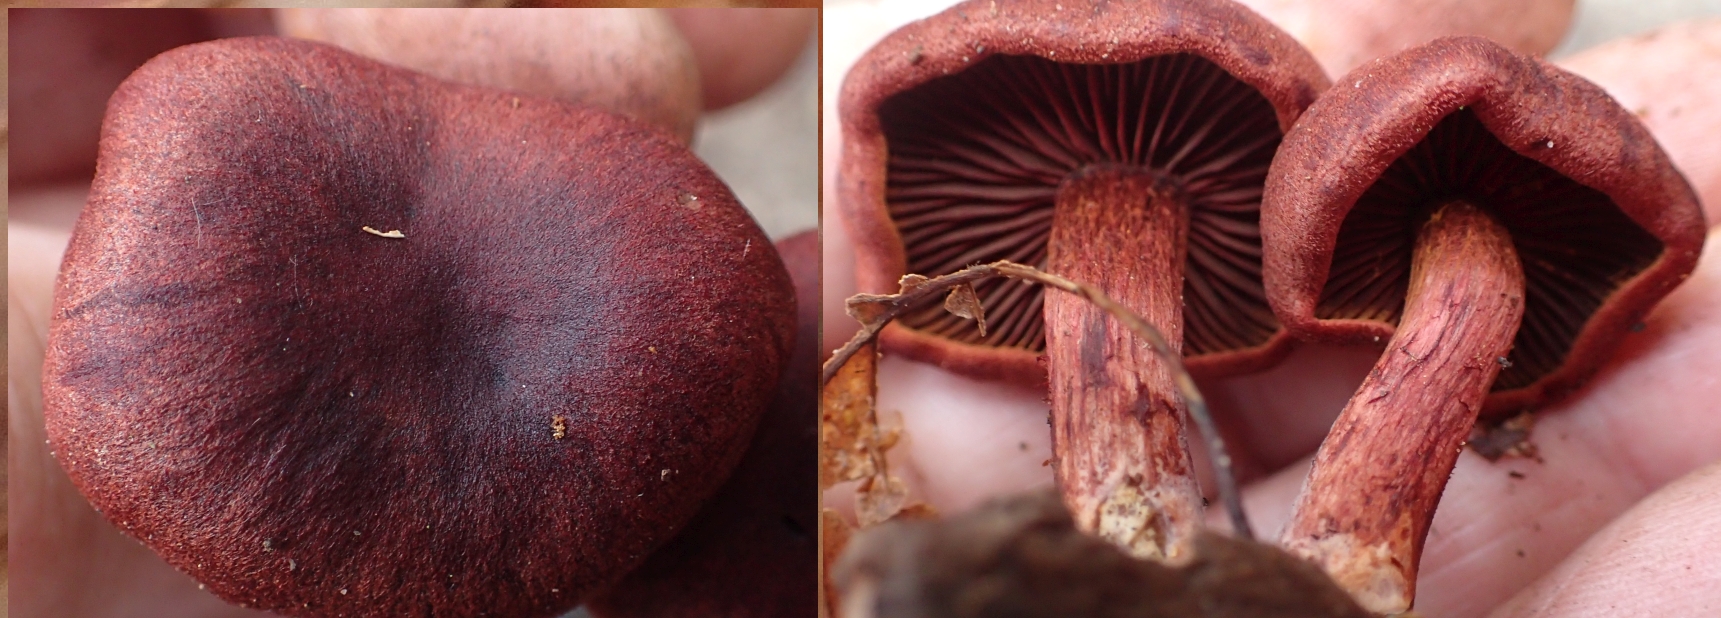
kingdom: Fungi
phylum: Basidiomycota
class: Agaricomycetes
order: Agaricales
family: Cortinariaceae
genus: Cortinarius
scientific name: Cortinarius
